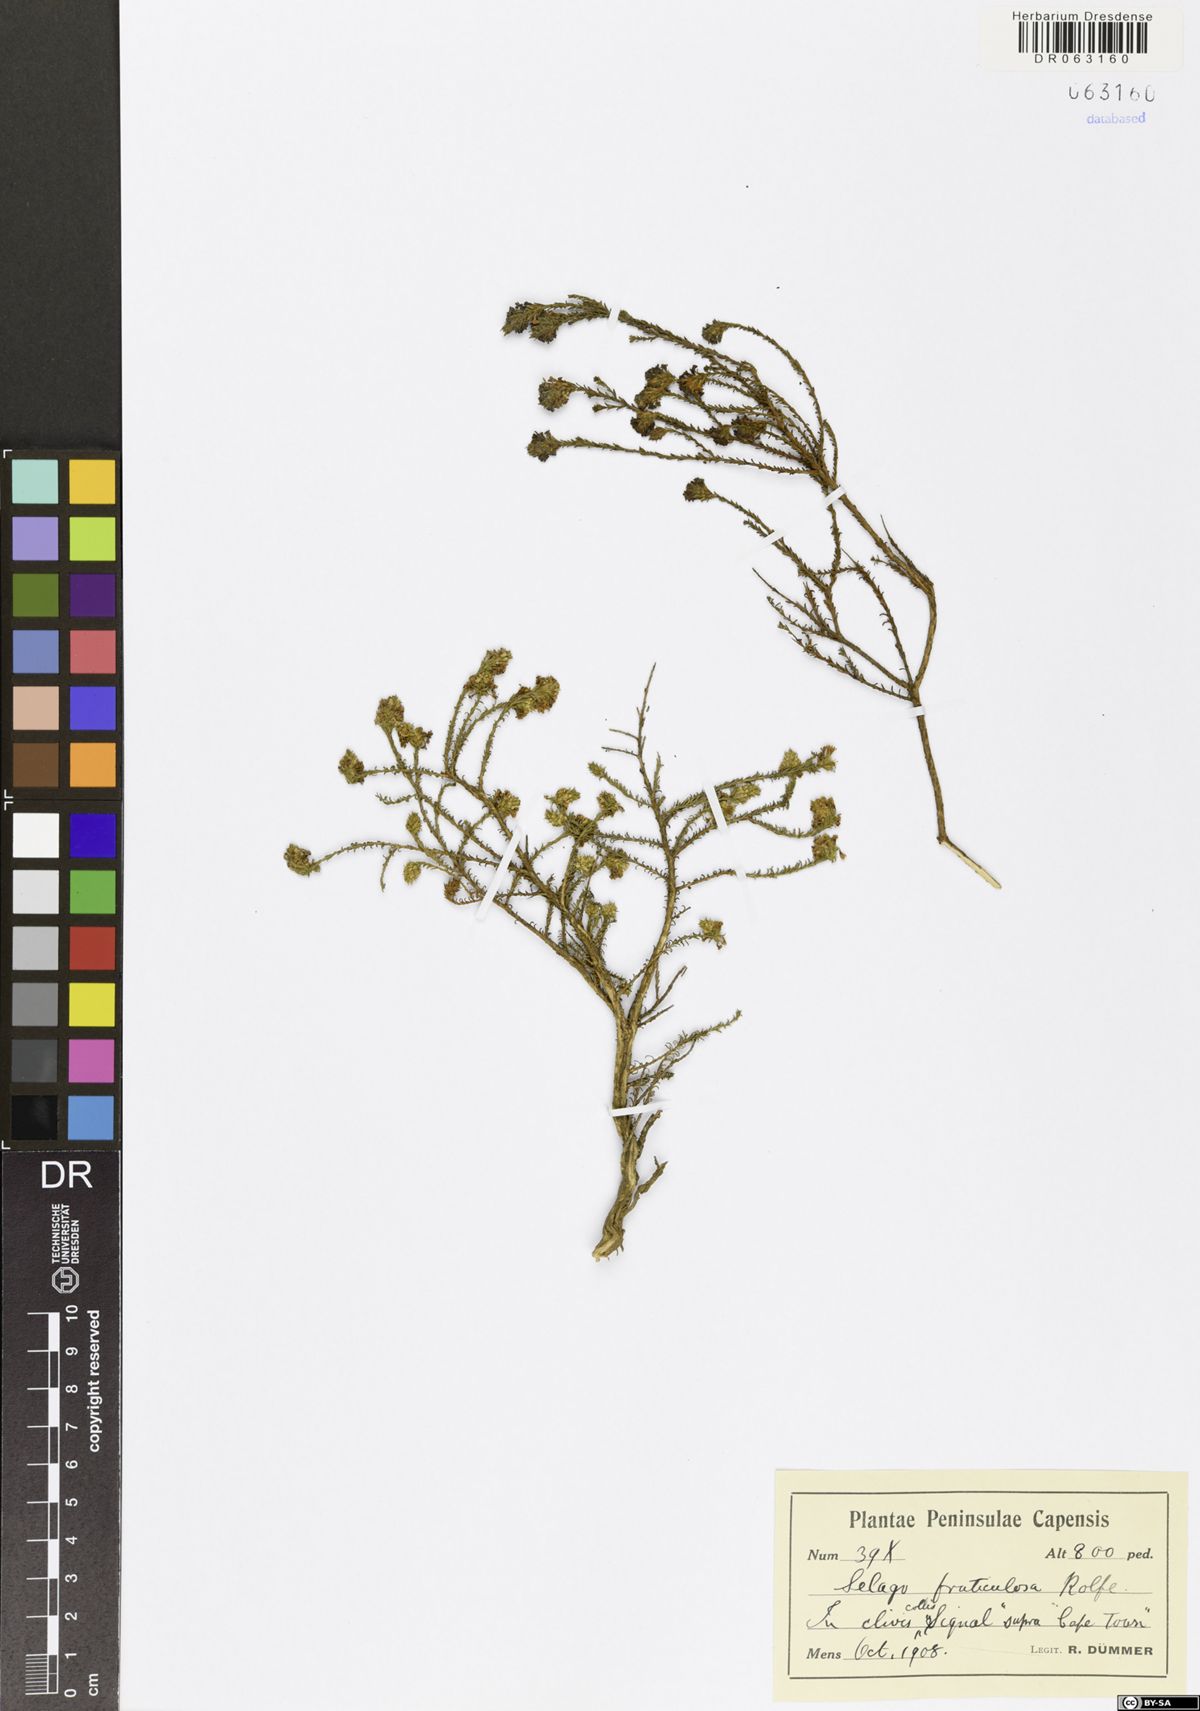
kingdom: Plantae
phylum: Tracheophyta
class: Magnoliopsida
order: Lamiales
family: Scrophulariaceae
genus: Selago
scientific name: Selago fruticosa
